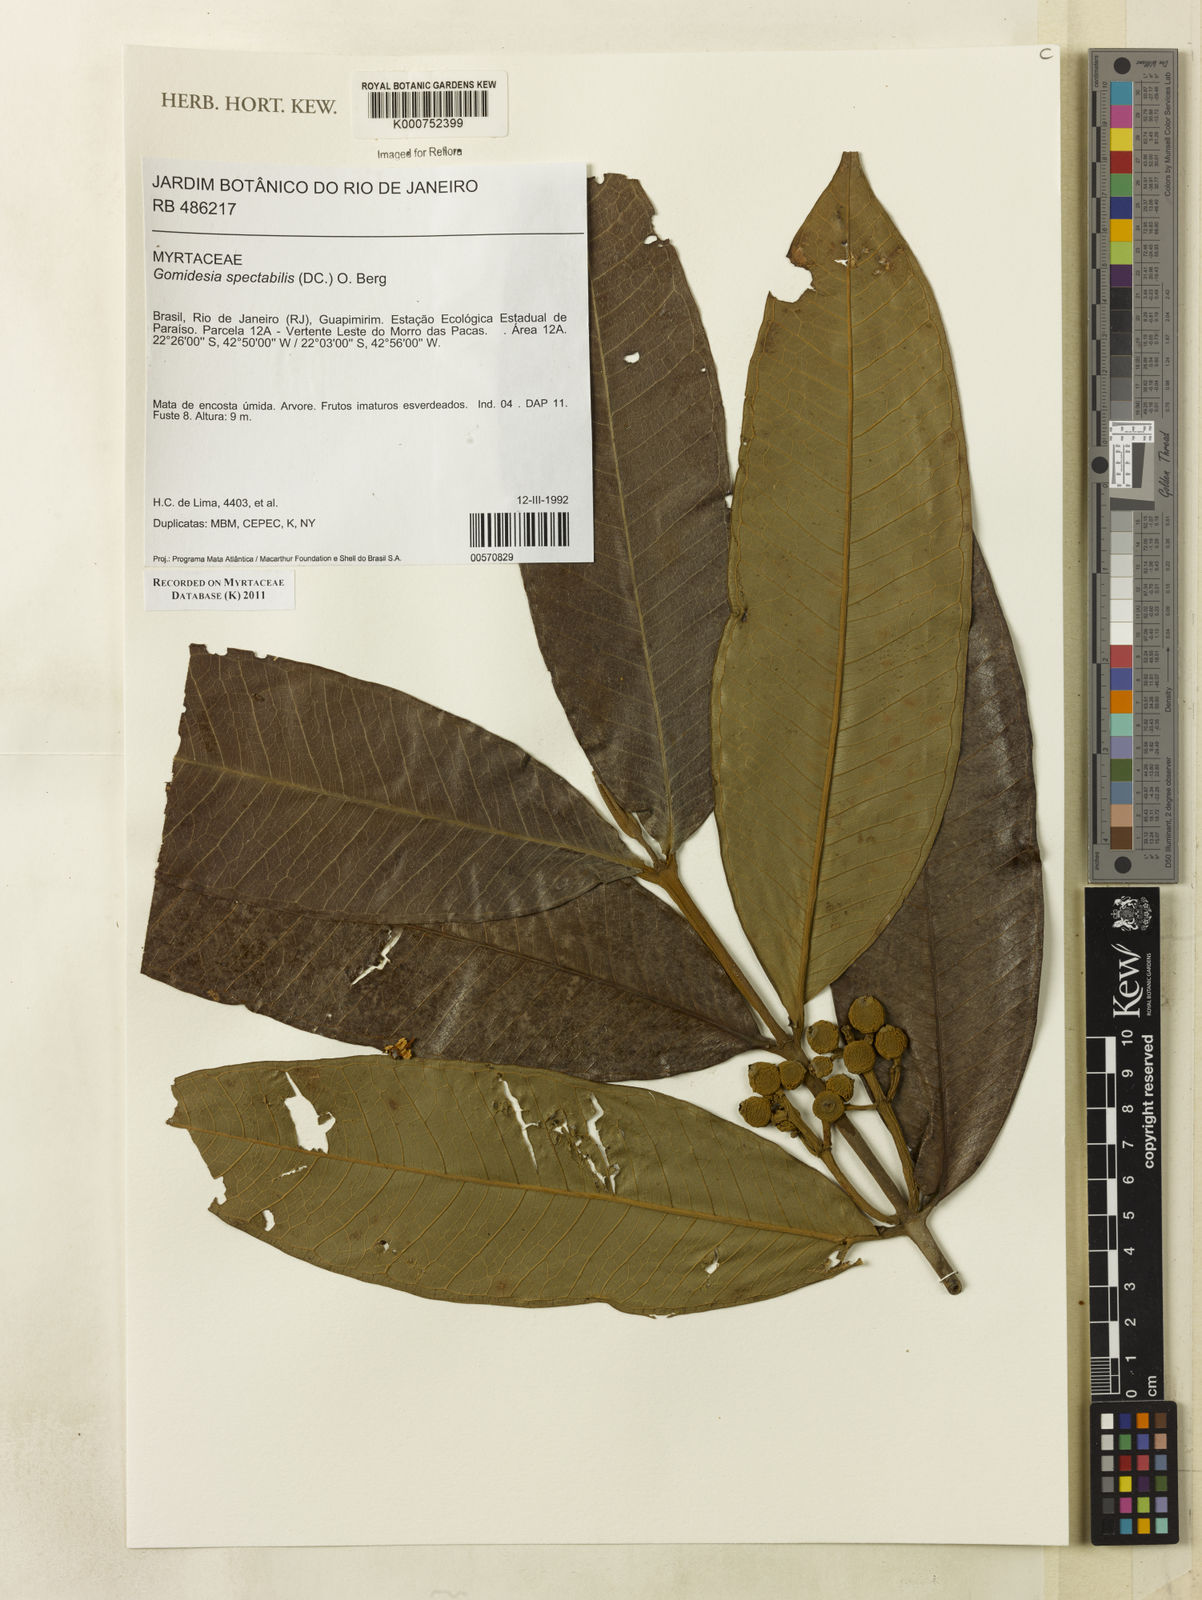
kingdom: Plantae
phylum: Tracheophyta
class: Magnoliopsida
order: Myrtales
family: Myrtaceae
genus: Myrcia
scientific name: Myrcia spectabilis
